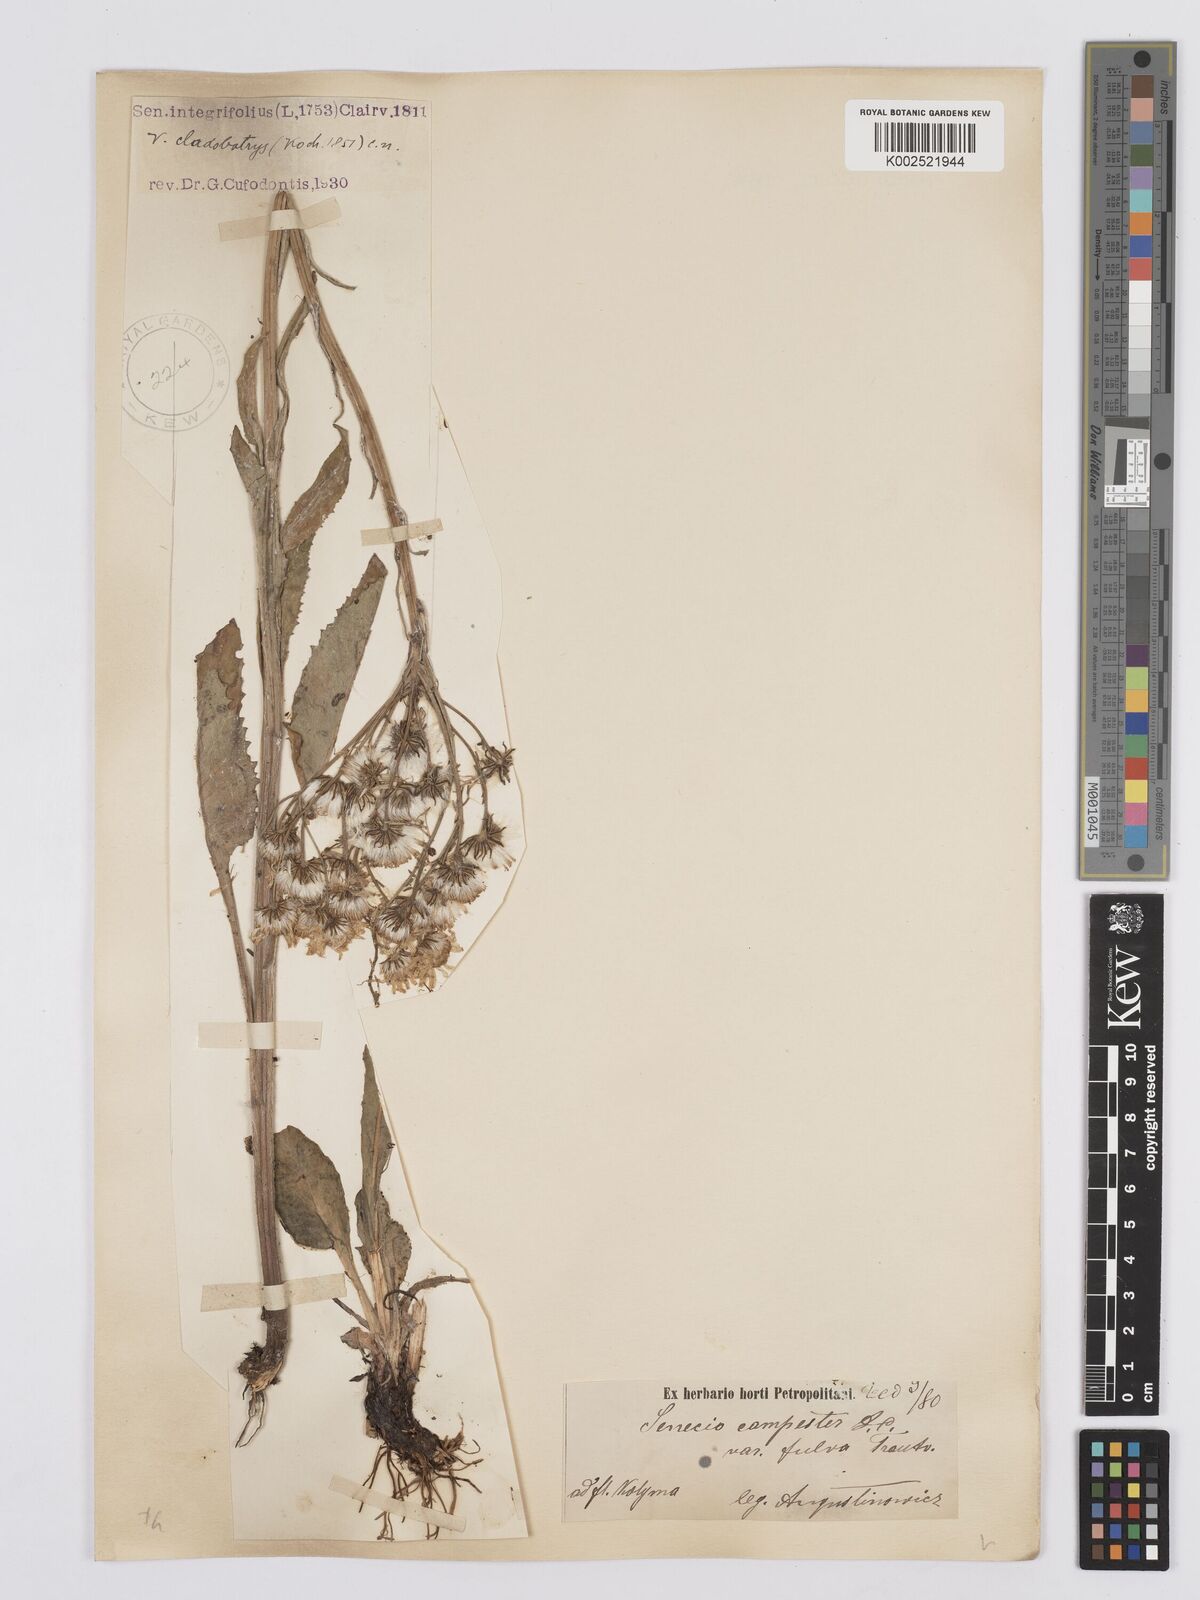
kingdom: Plantae
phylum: Tracheophyta
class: Magnoliopsida
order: Asterales
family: Asteraceae
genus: Tephroseris
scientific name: Tephroseris integrifolia
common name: Field fleawort
